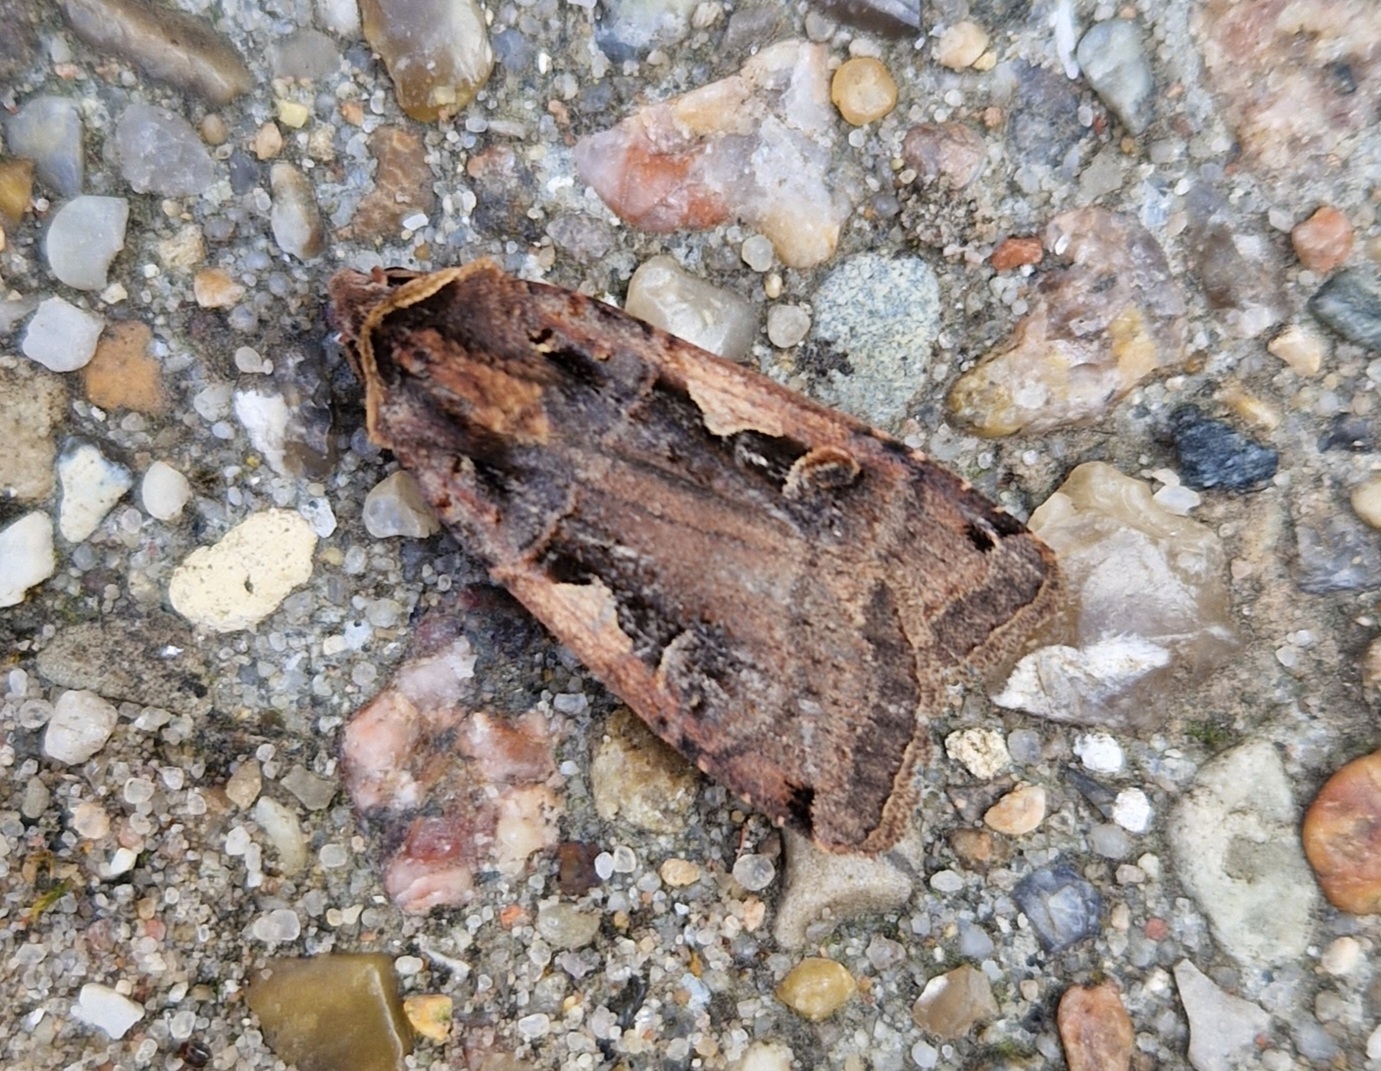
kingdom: Animalia
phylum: Arthropoda
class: Insecta
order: Lepidoptera
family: Noctuidae
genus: Xestia
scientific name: Xestia c-nigrum
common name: Det sorte c
